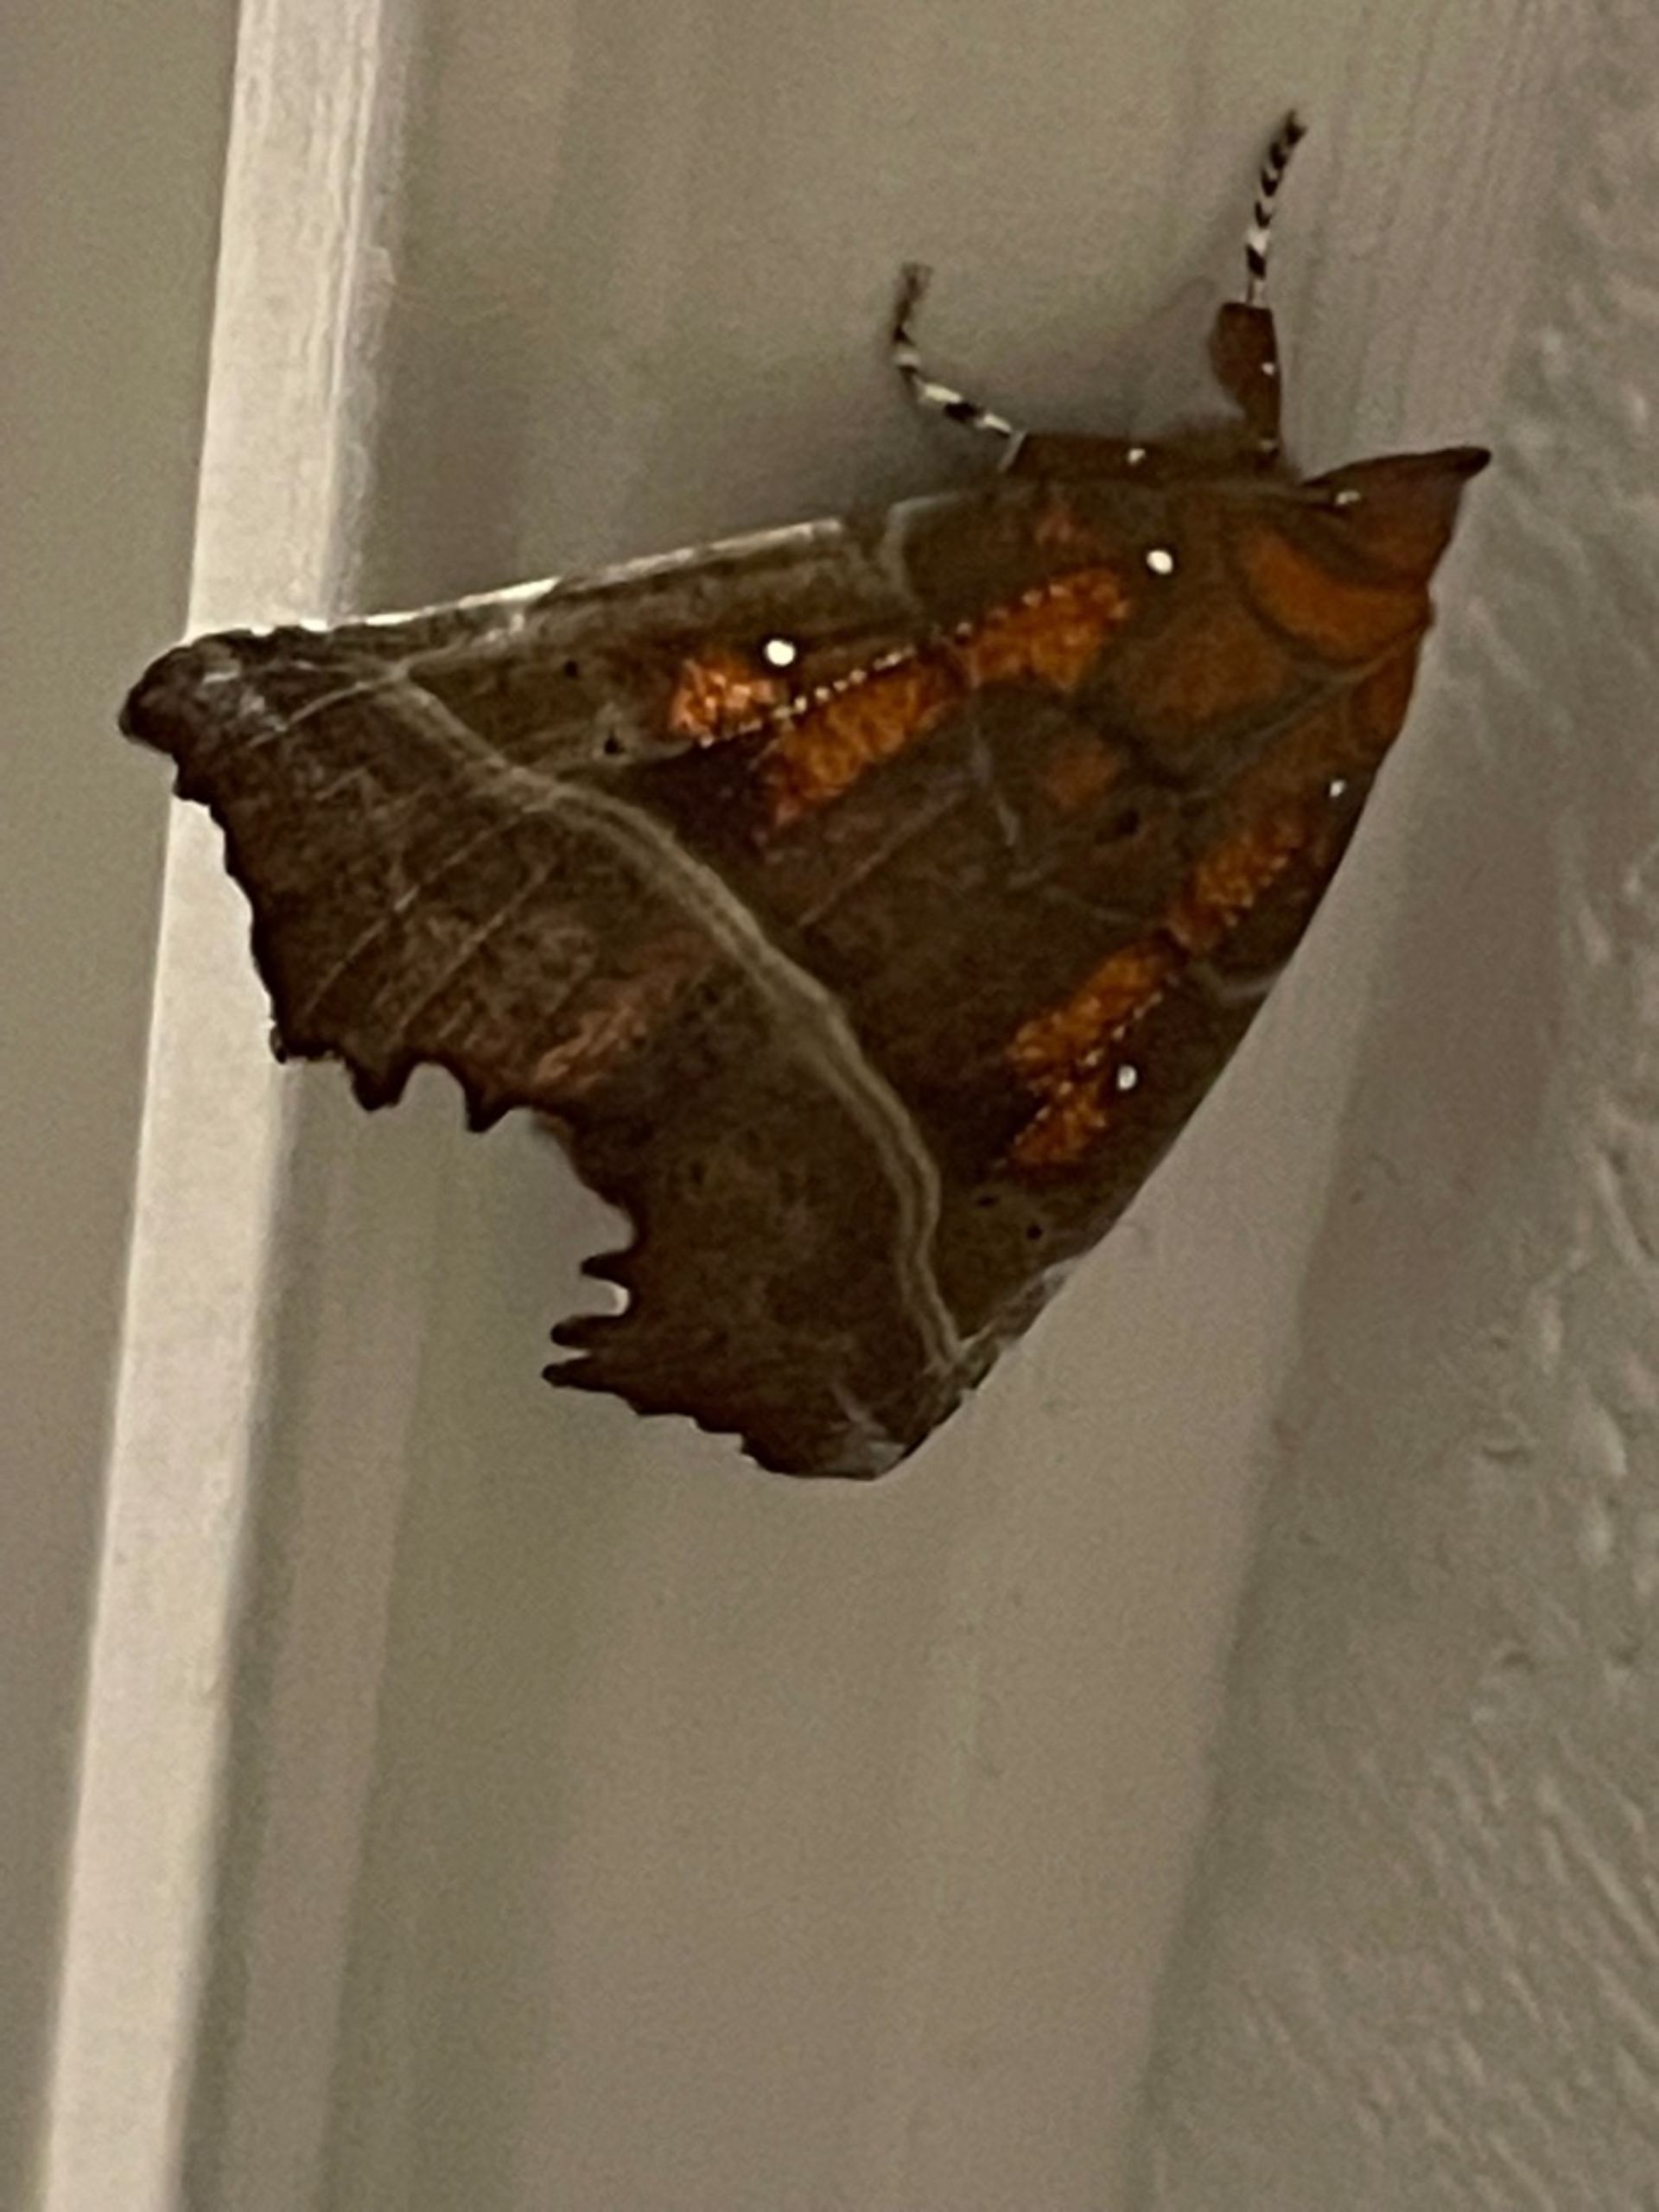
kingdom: Animalia
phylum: Arthropoda
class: Insecta
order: Lepidoptera
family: Erebidae
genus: Scoliopteryx
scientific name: Scoliopteryx libatrix
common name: Husmoderugle
